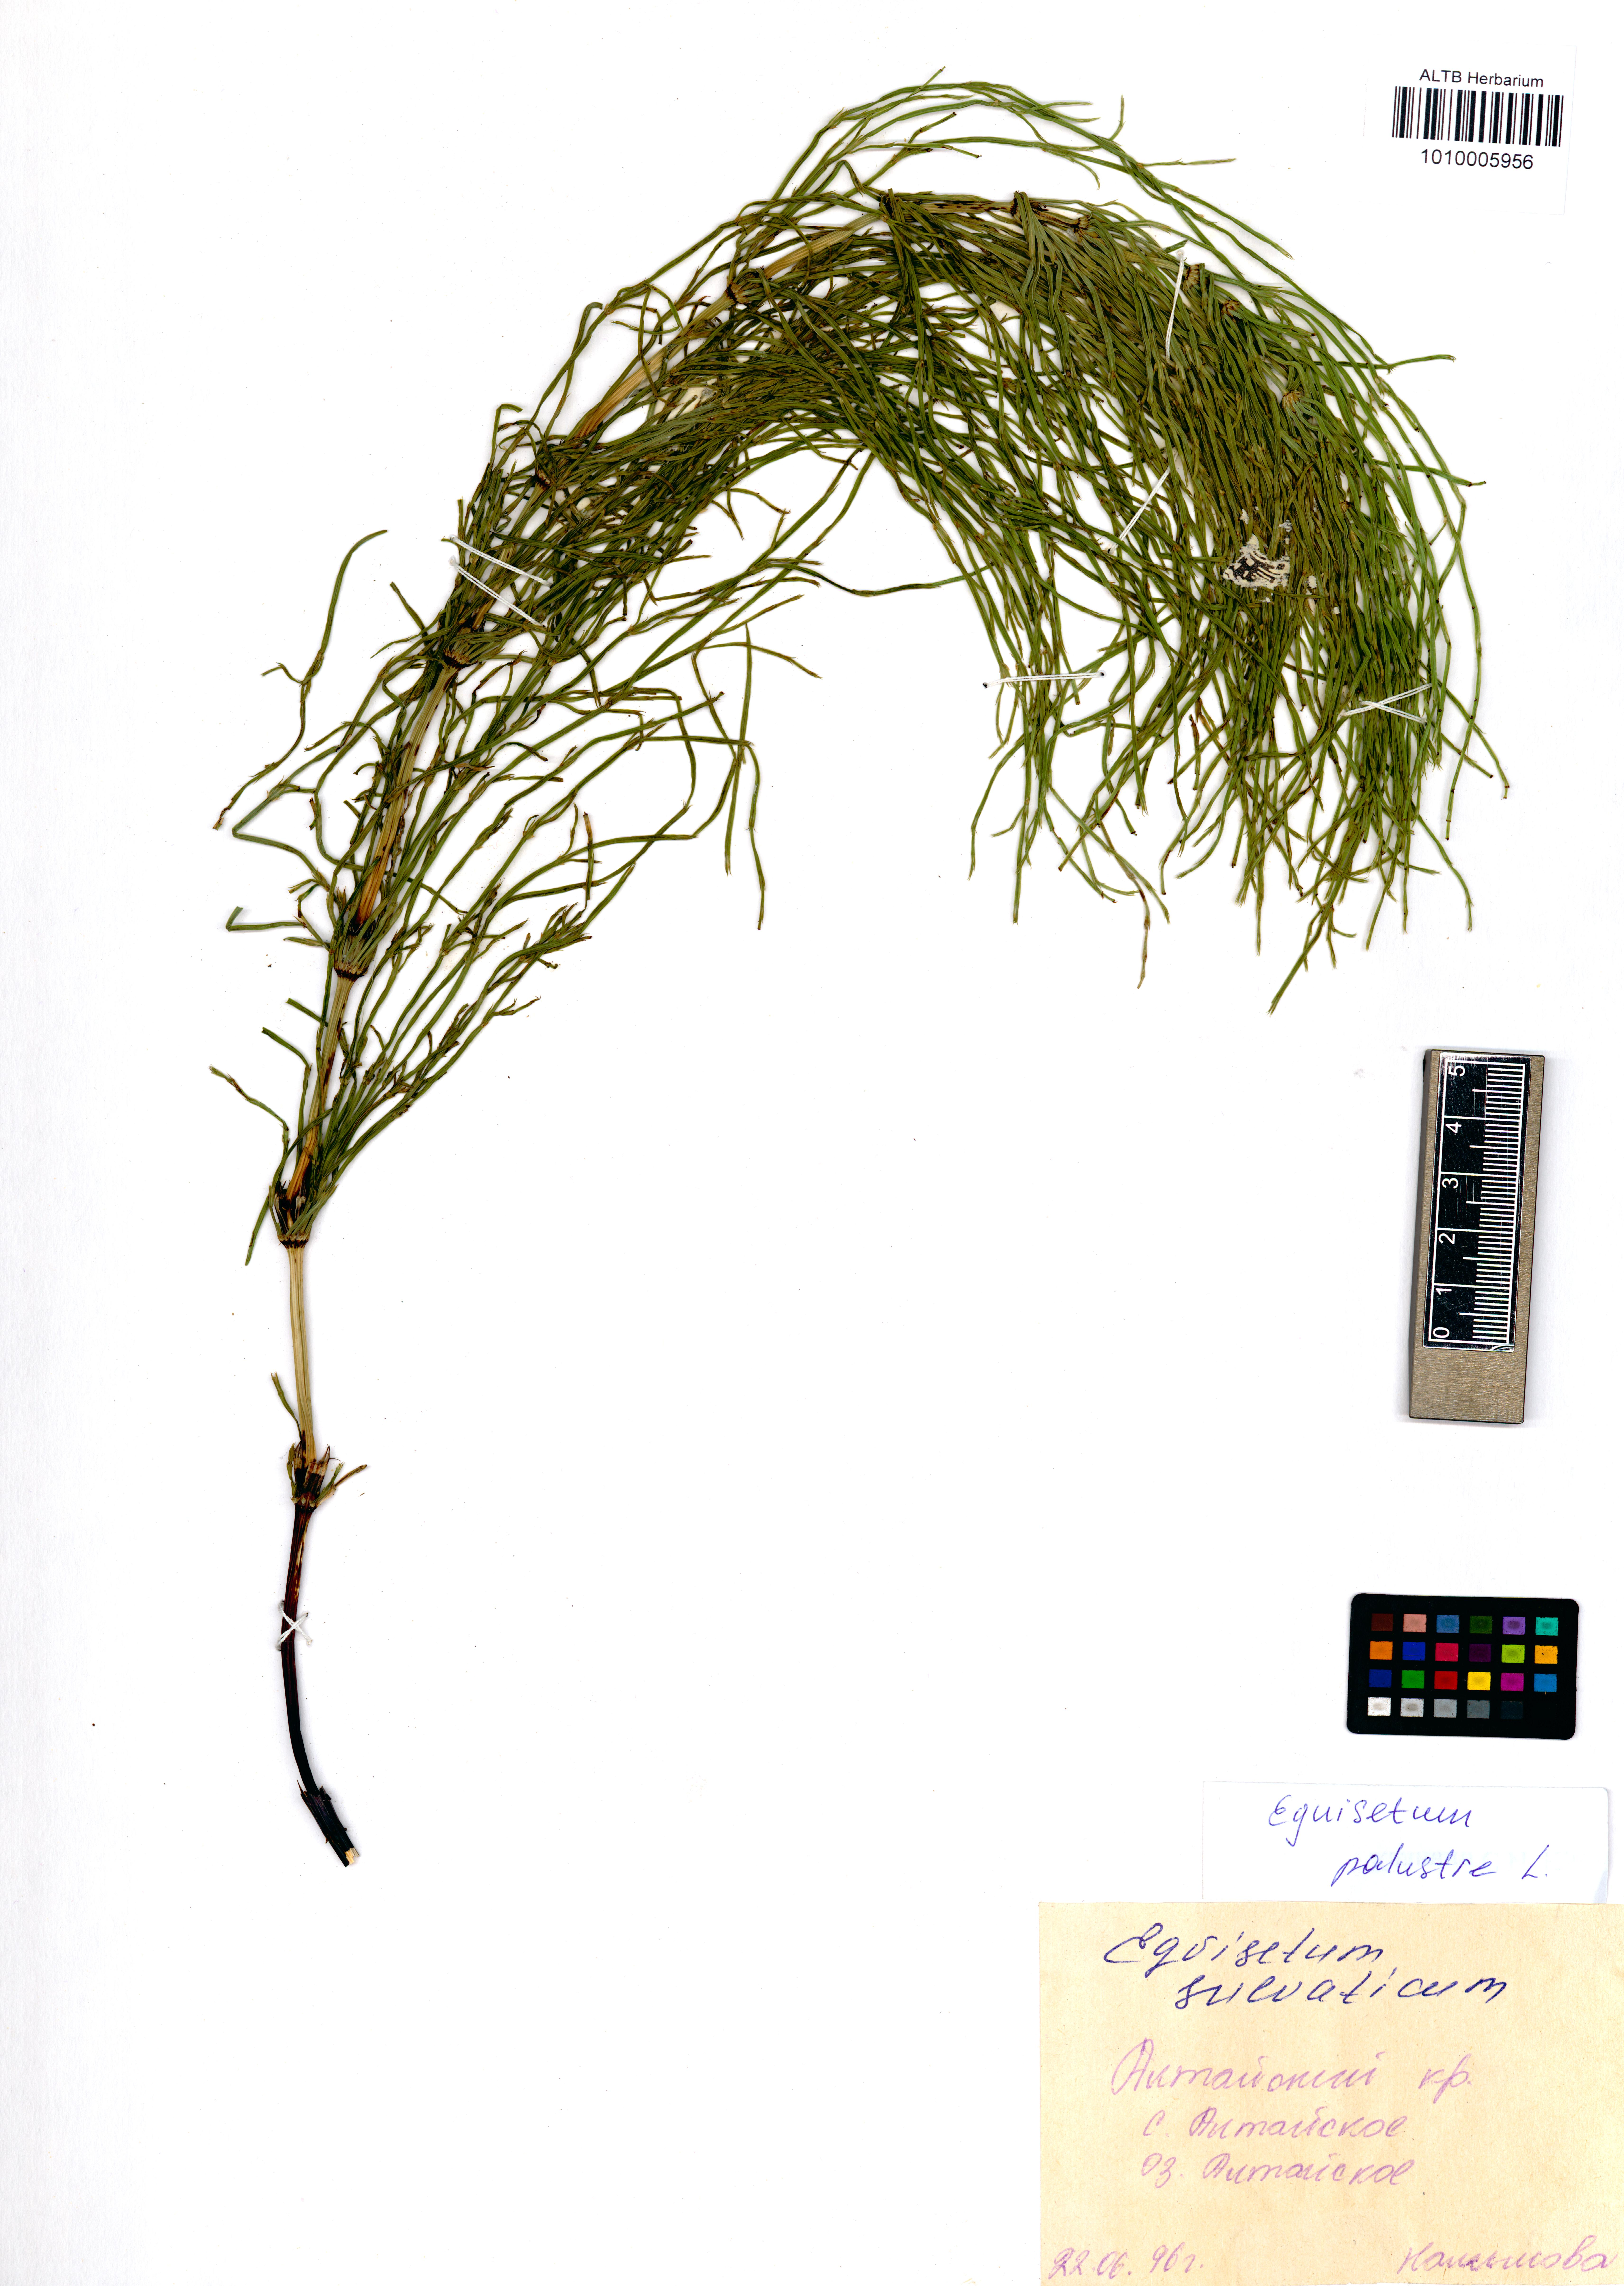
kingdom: Plantae
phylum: Tracheophyta
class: Polypodiopsida
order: Equisetales
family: Equisetaceae
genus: Equisetum
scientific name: Equisetum palustre
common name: Marsh horsetail
